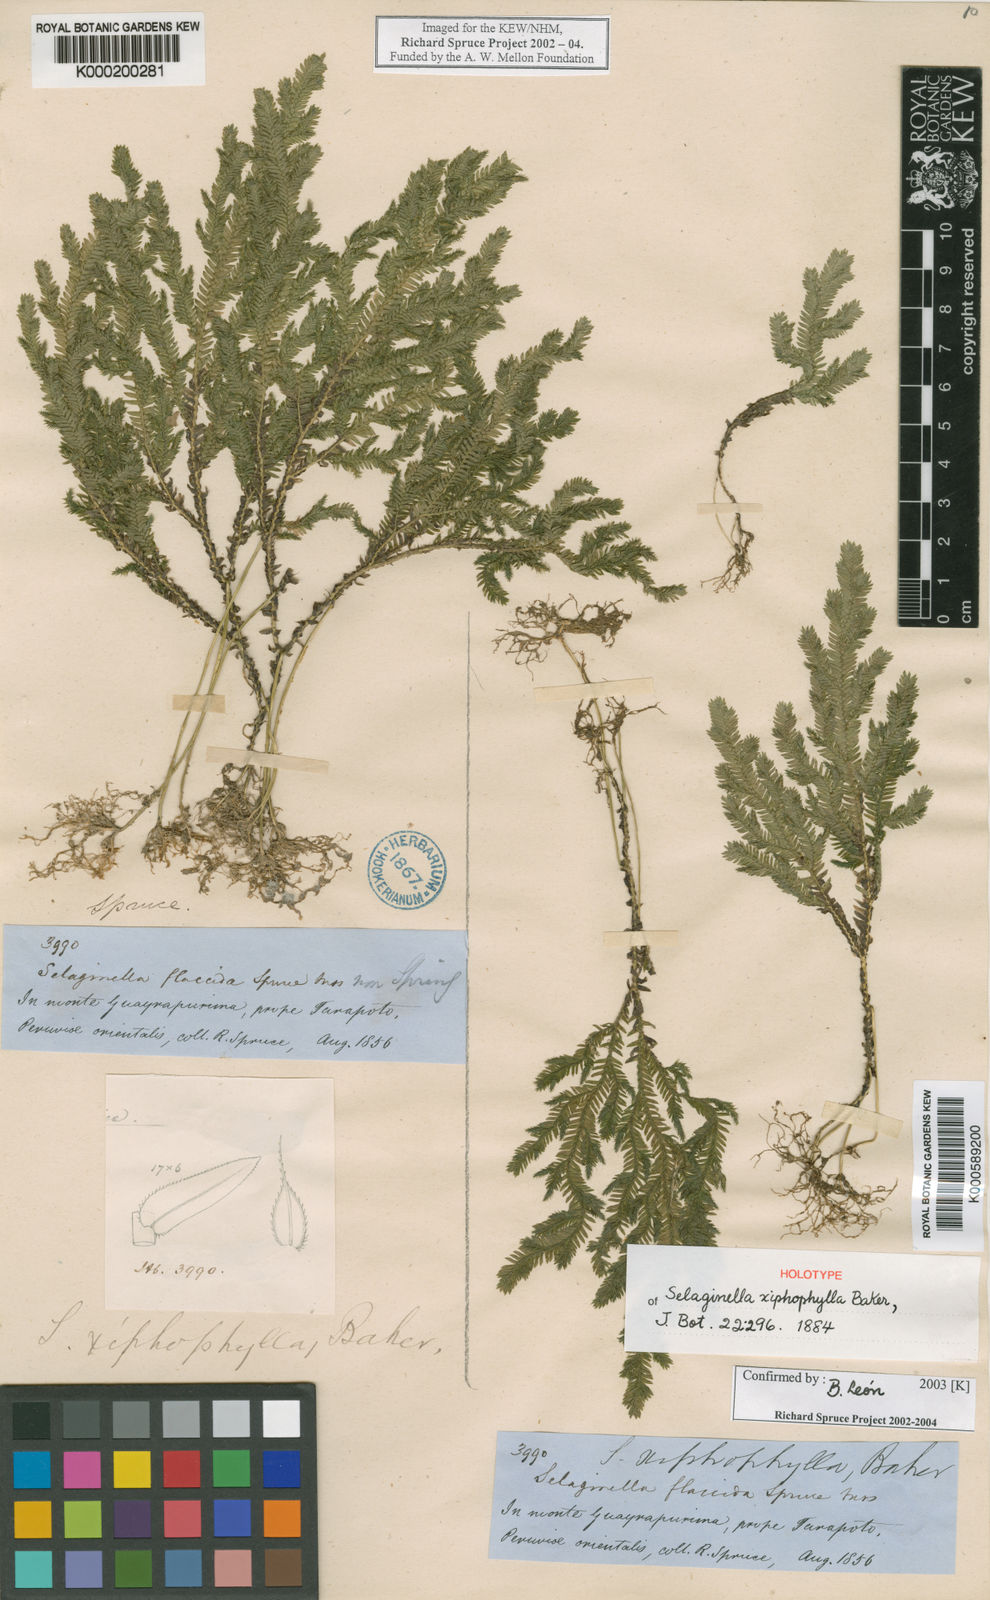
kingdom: Plantae
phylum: Tracheophyta
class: Lycopodiopsida
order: Selaginellales
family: Selaginellaceae
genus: Selaginella
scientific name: Selaginella xiphophylla
